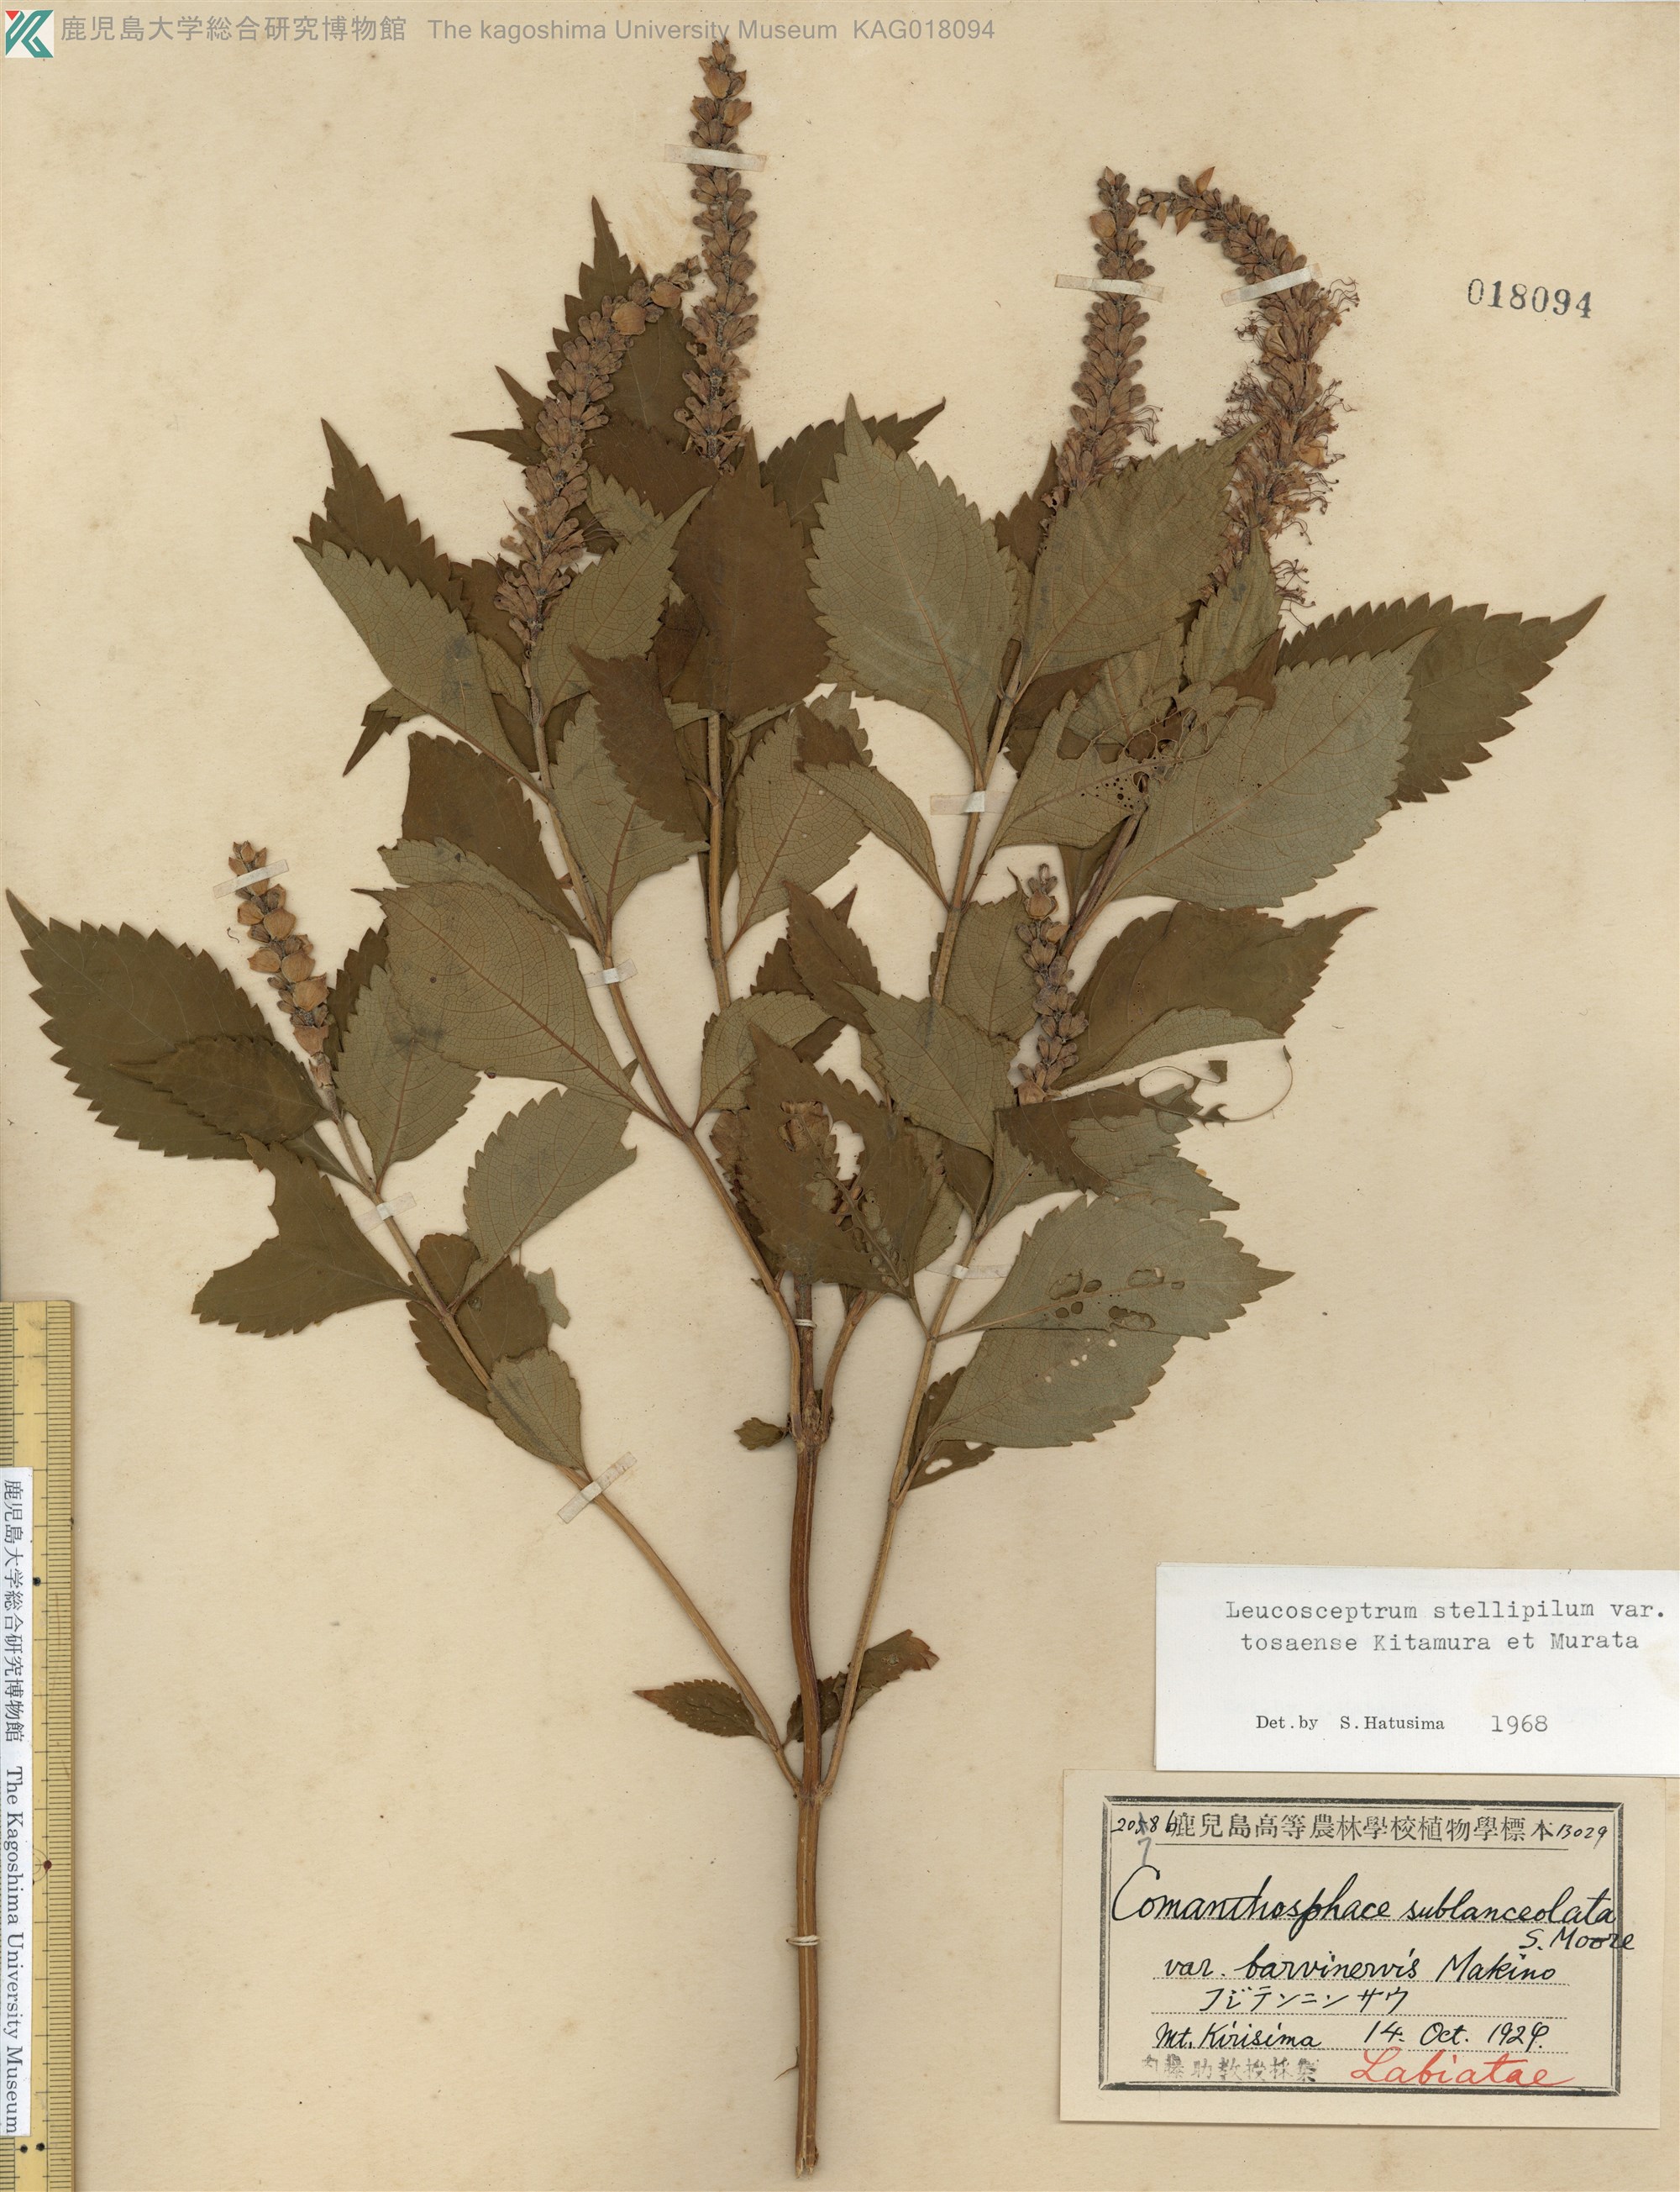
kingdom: Plantae
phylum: Tracheophyta
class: Magnoliopsida
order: Lamiales
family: Lamiaceae
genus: Comanthosphace
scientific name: Comanthosphace japonica
